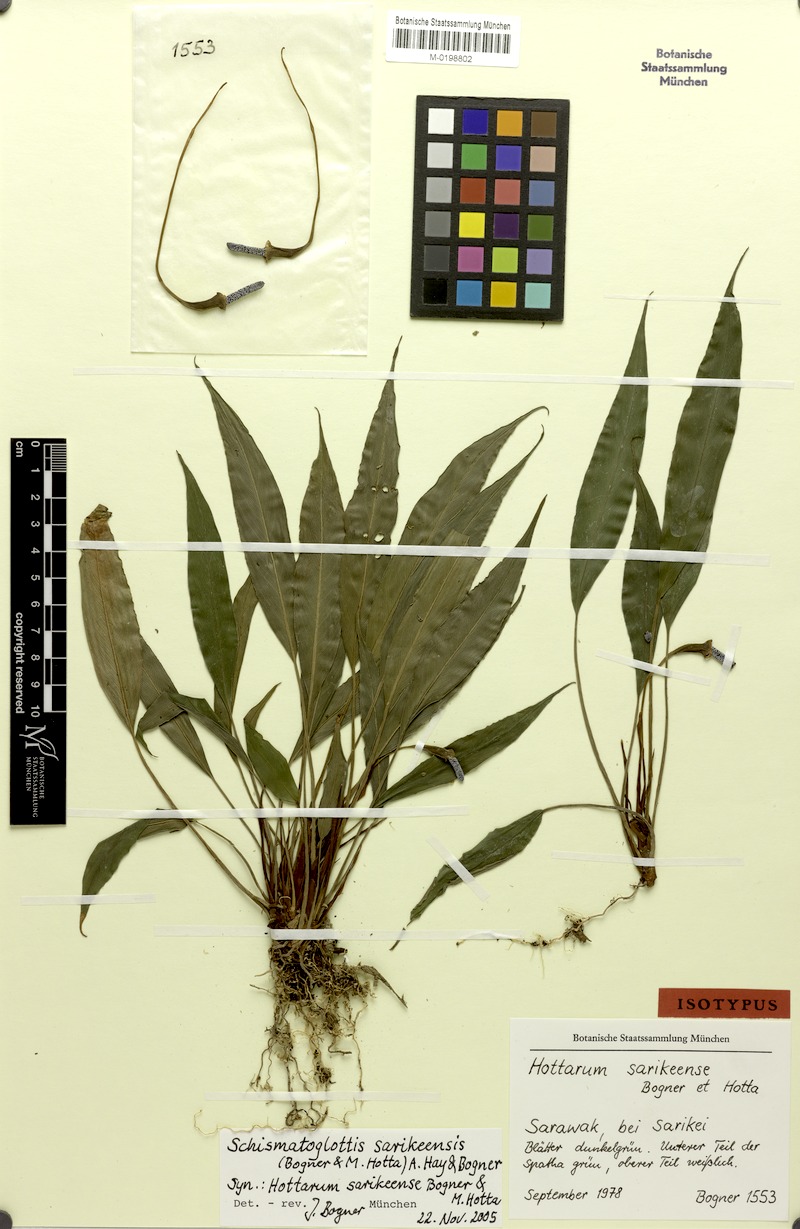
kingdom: Plantae
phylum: Tracheophyta
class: Liliopsida
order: Alismatales
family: Araceae
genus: Schottarum
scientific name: Schottarum sarikeense
